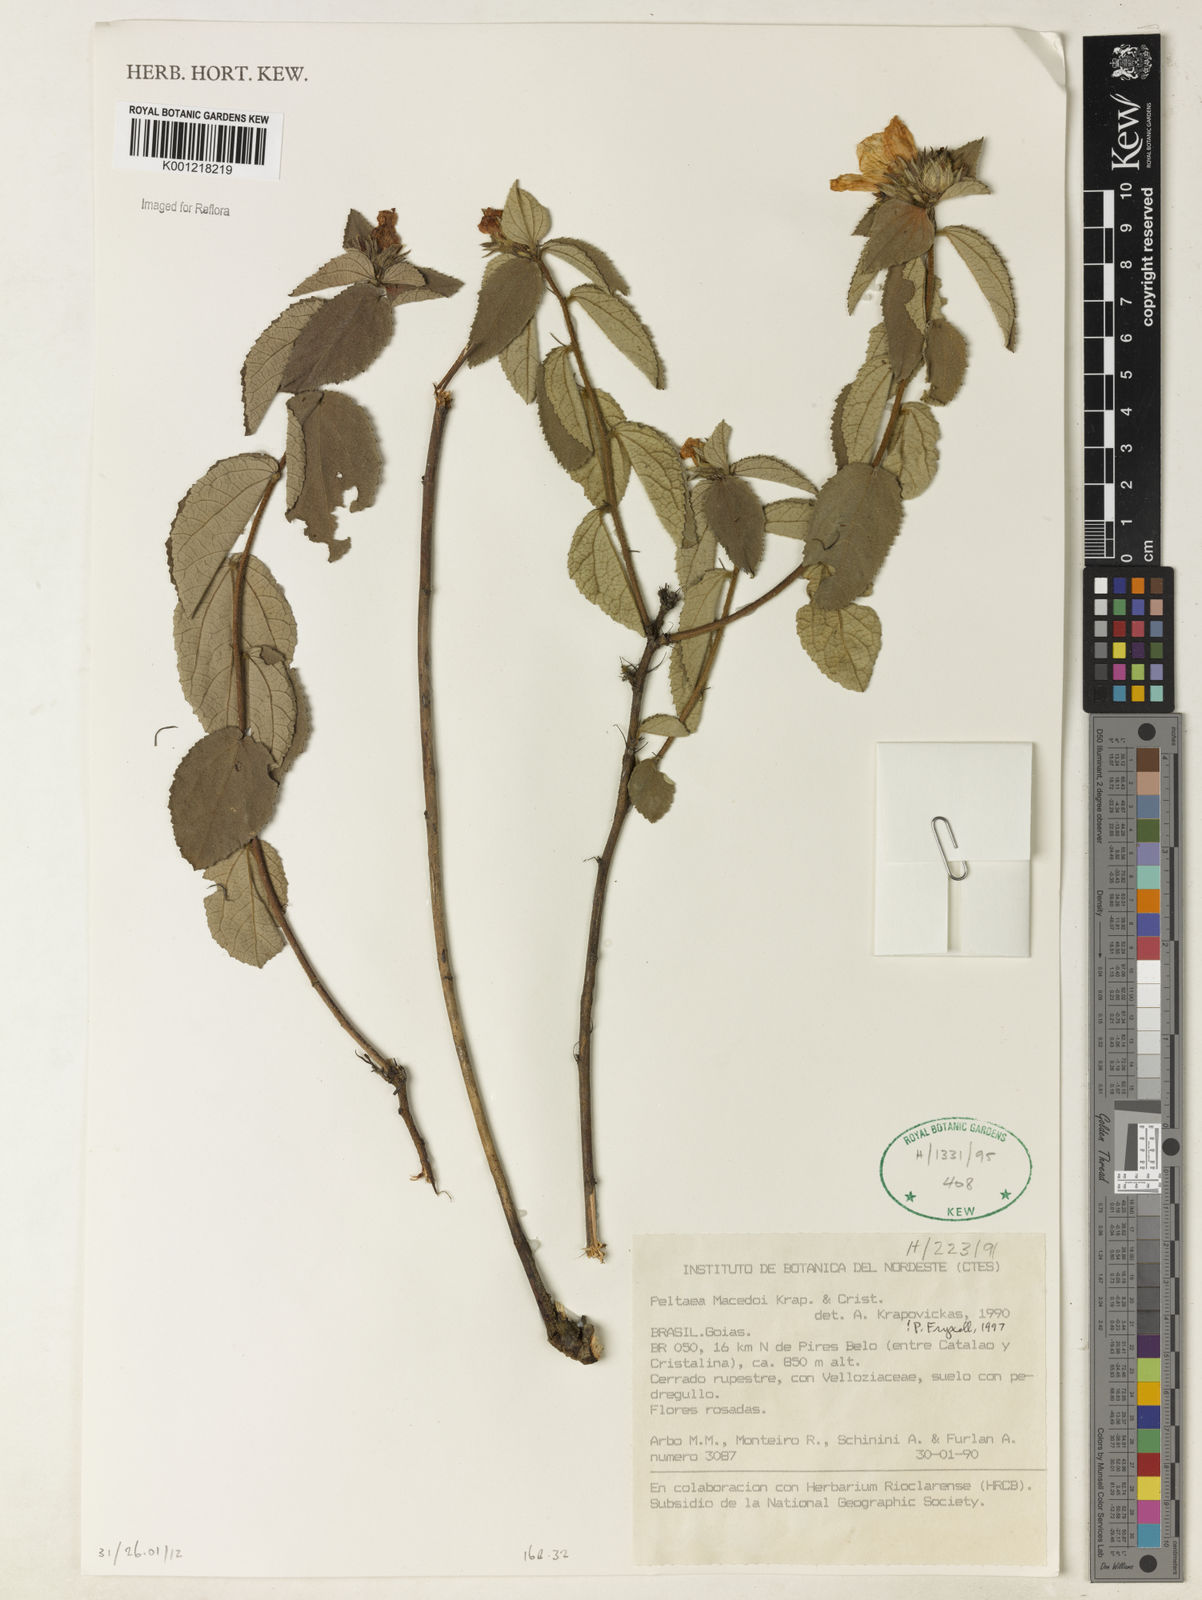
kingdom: Plantae
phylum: Tracheophyta
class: Magnoliopsida
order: Malvales
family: Malvaceae
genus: Peltaea
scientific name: Peltaea
